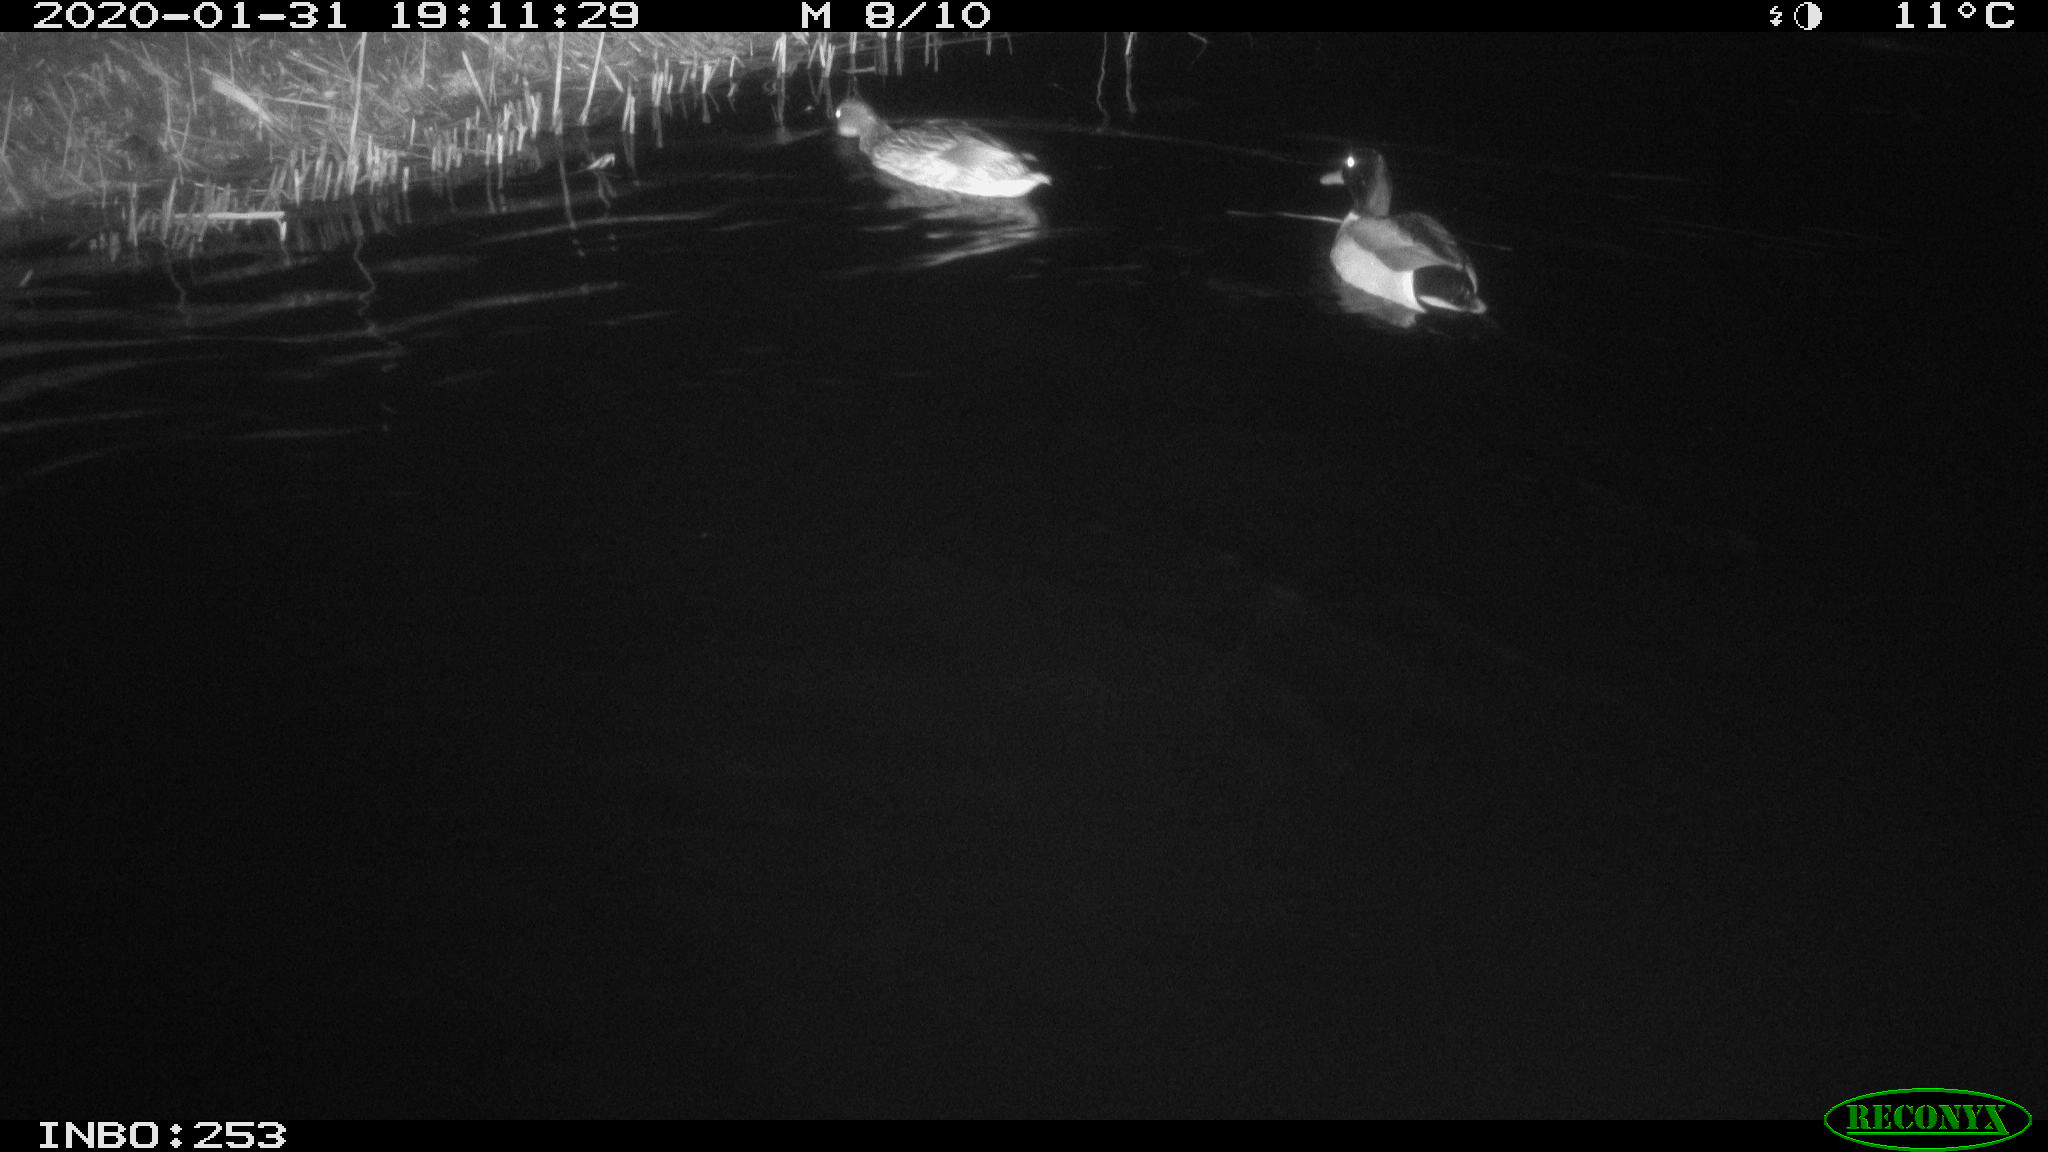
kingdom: Animalia
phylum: Chordata
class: Aves
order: Anseriformes
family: Anatidae
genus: Anas
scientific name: Anas platyrhynchos
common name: Mallard
